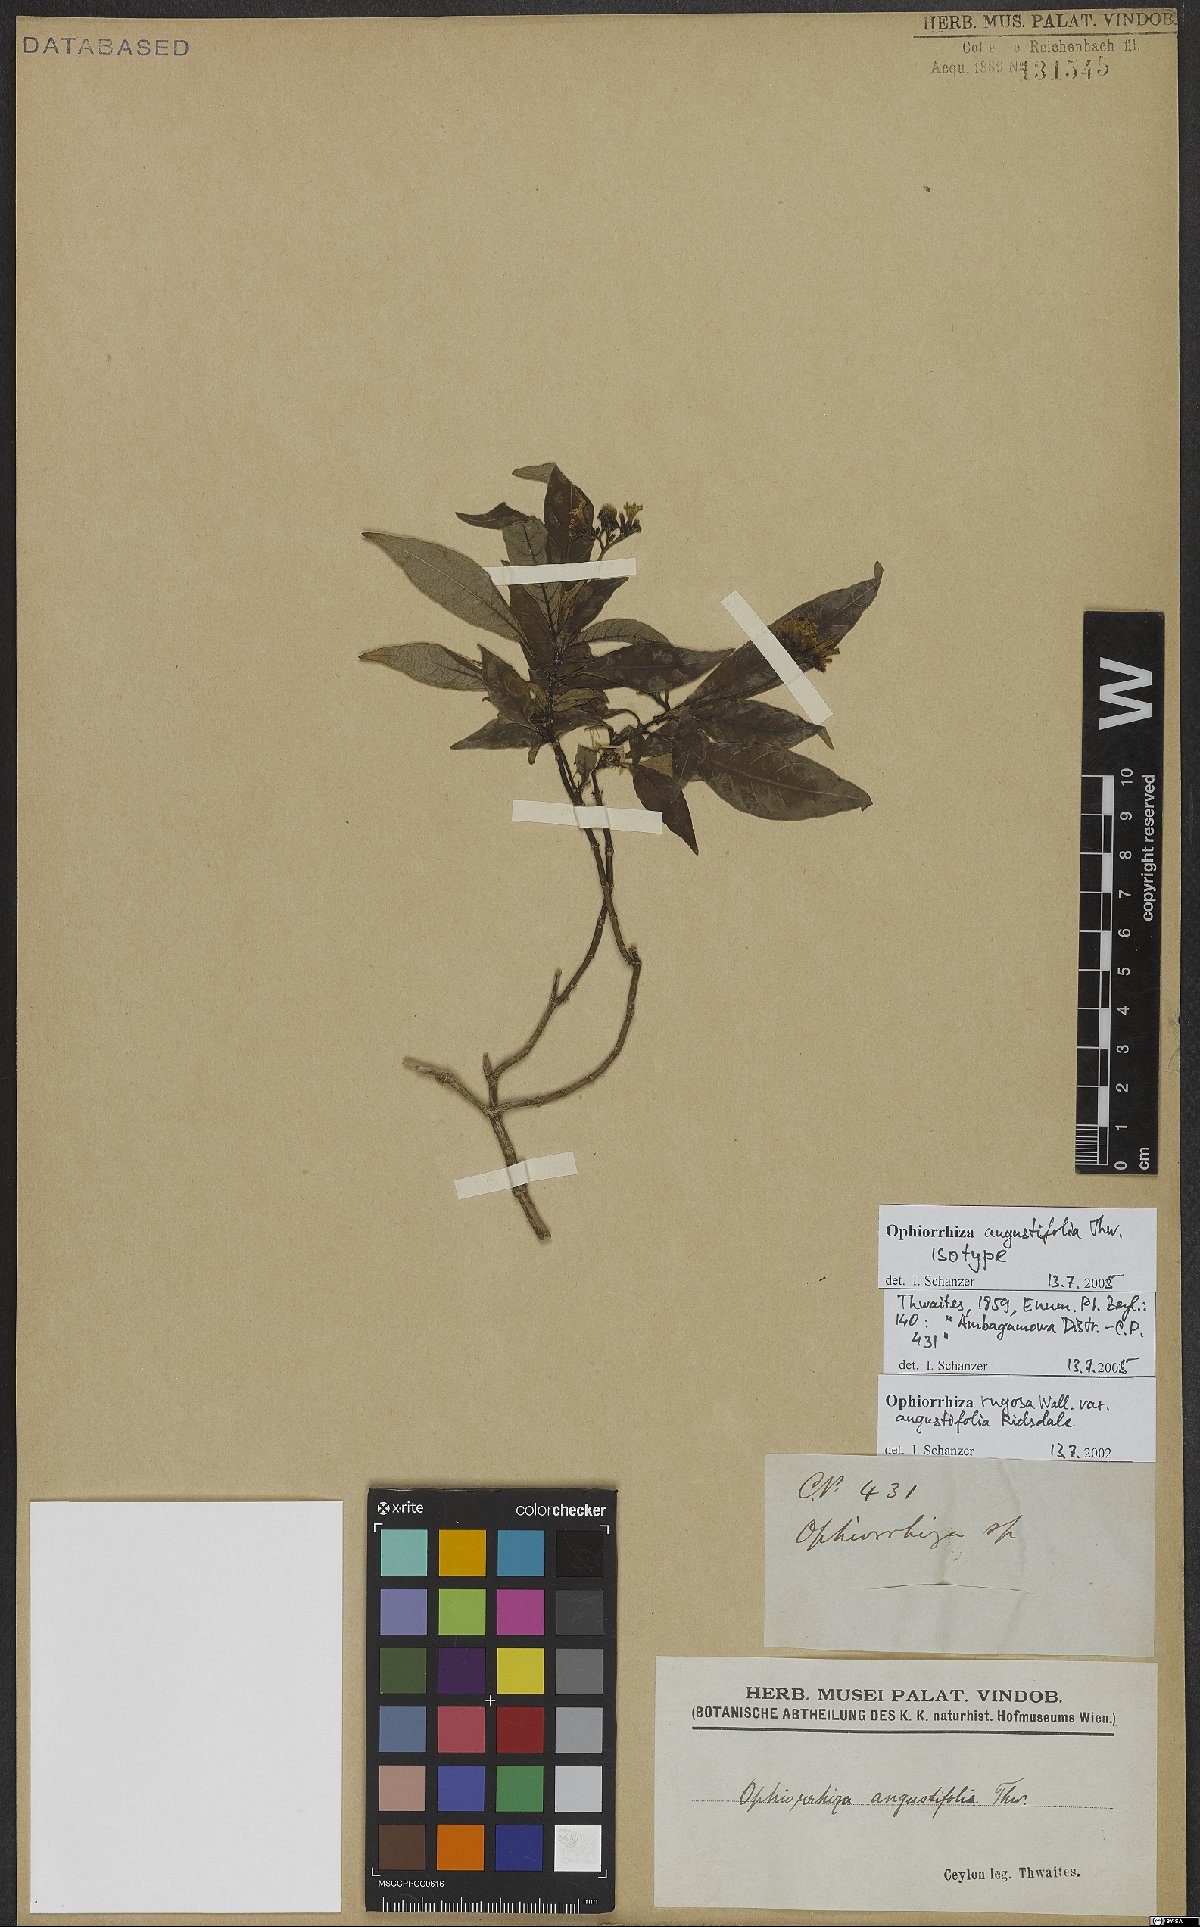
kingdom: Plantae
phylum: Tracheophyta
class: Magnoliopsida
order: Gentianales
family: Rubiaceae
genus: Ophiorrhiza
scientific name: Ophiorrhiza rugosa
